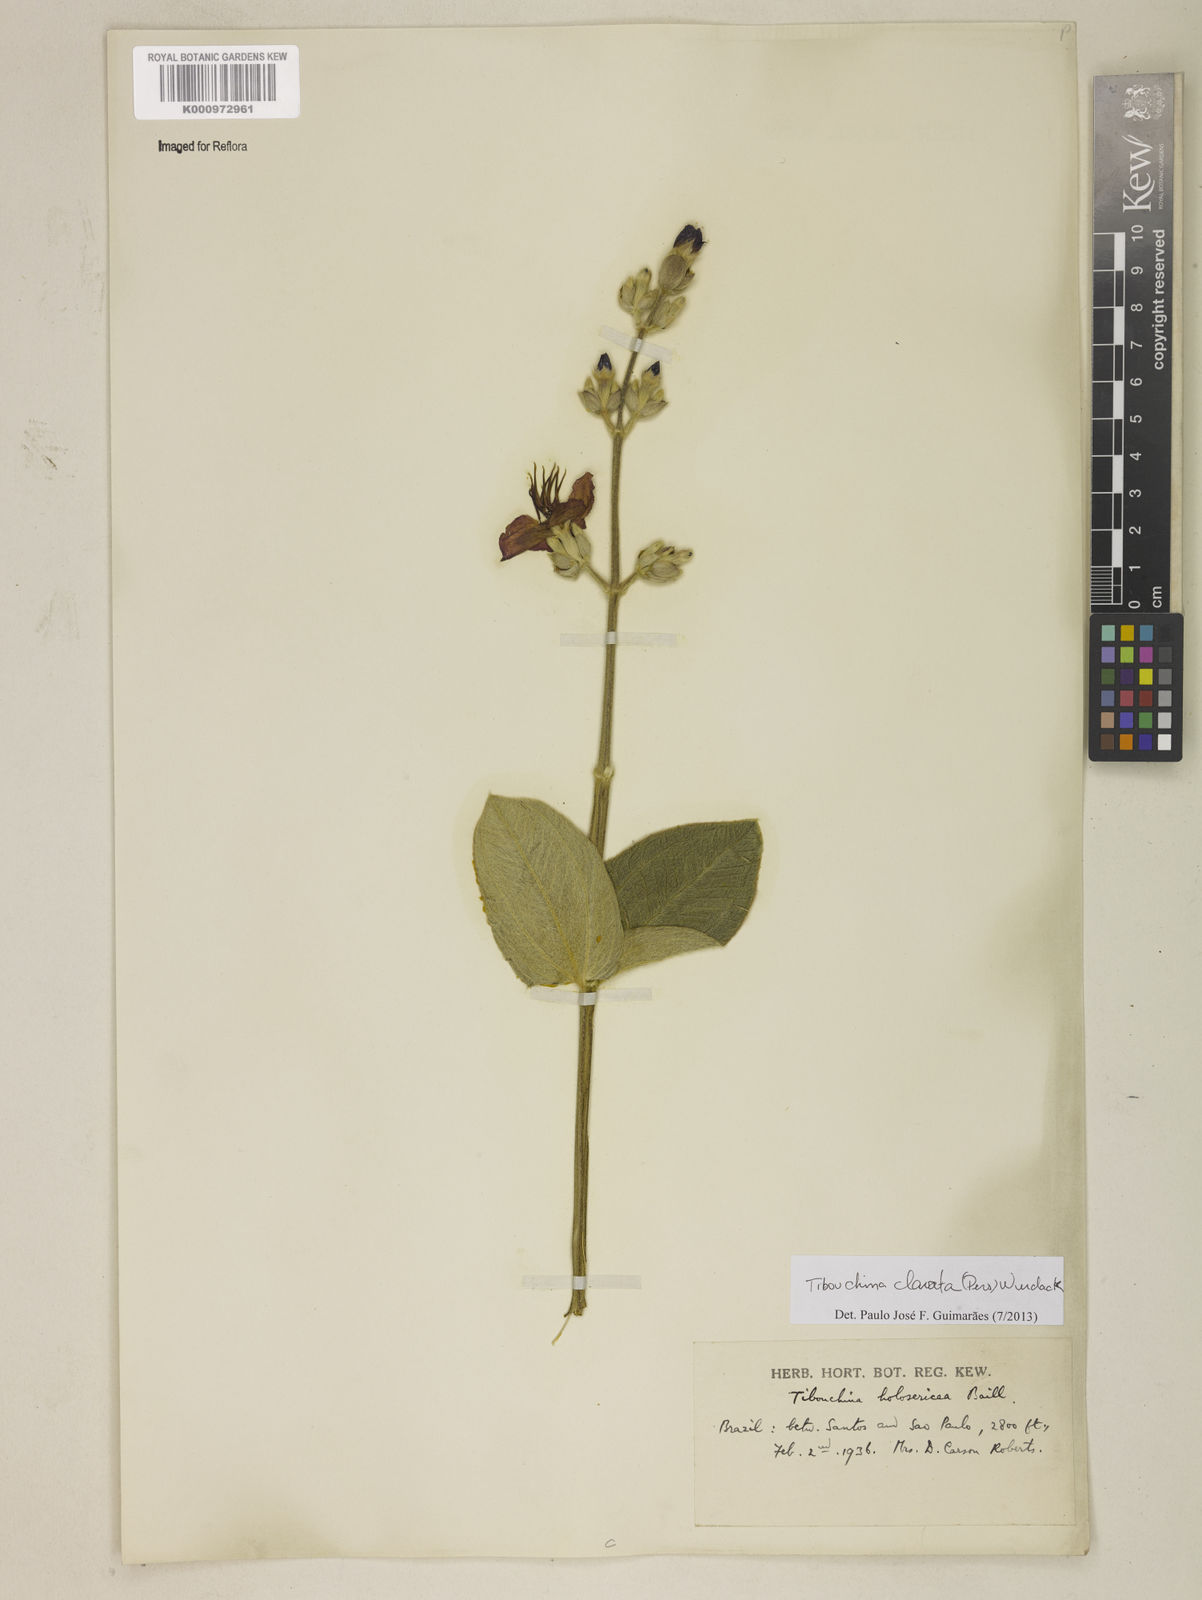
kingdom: Plantae
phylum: Tracheophyta
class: Magnoliopsida
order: Myrtales
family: Melastomataceae
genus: Pleroma
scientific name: Pleroma clavatum
